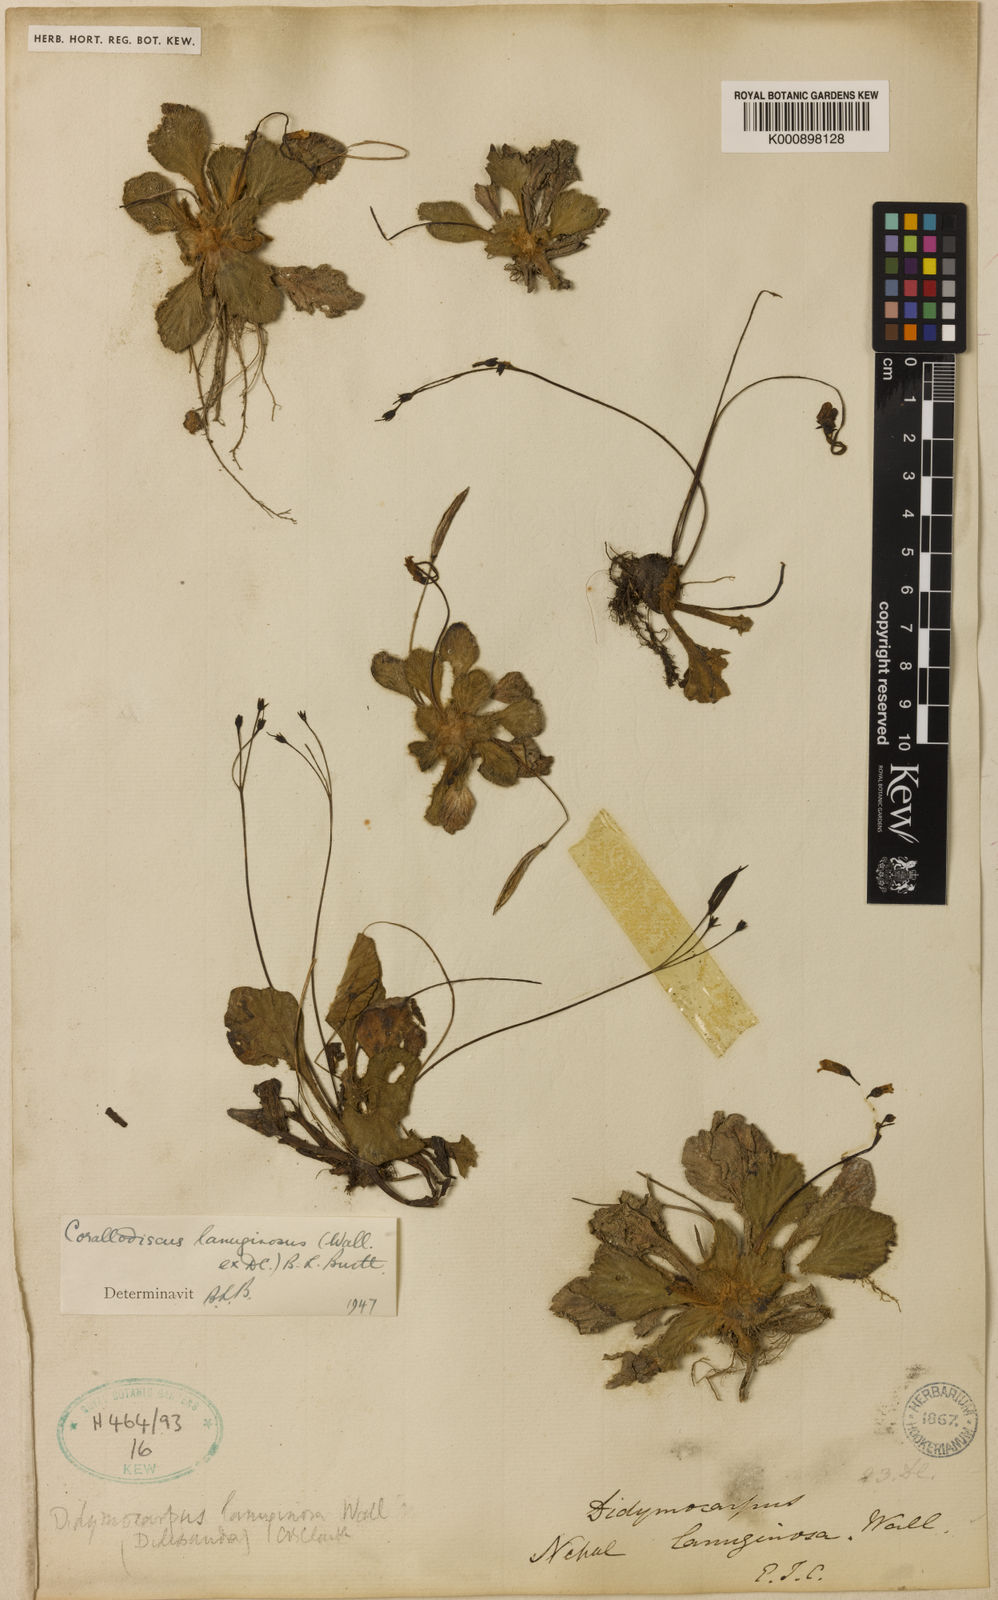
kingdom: Plantae
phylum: Tracheophyta
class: Magnoliopsida
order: Lamiales
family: Gesneriaceae
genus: Corallodiscus
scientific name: Corallodiscus lanuginosus
